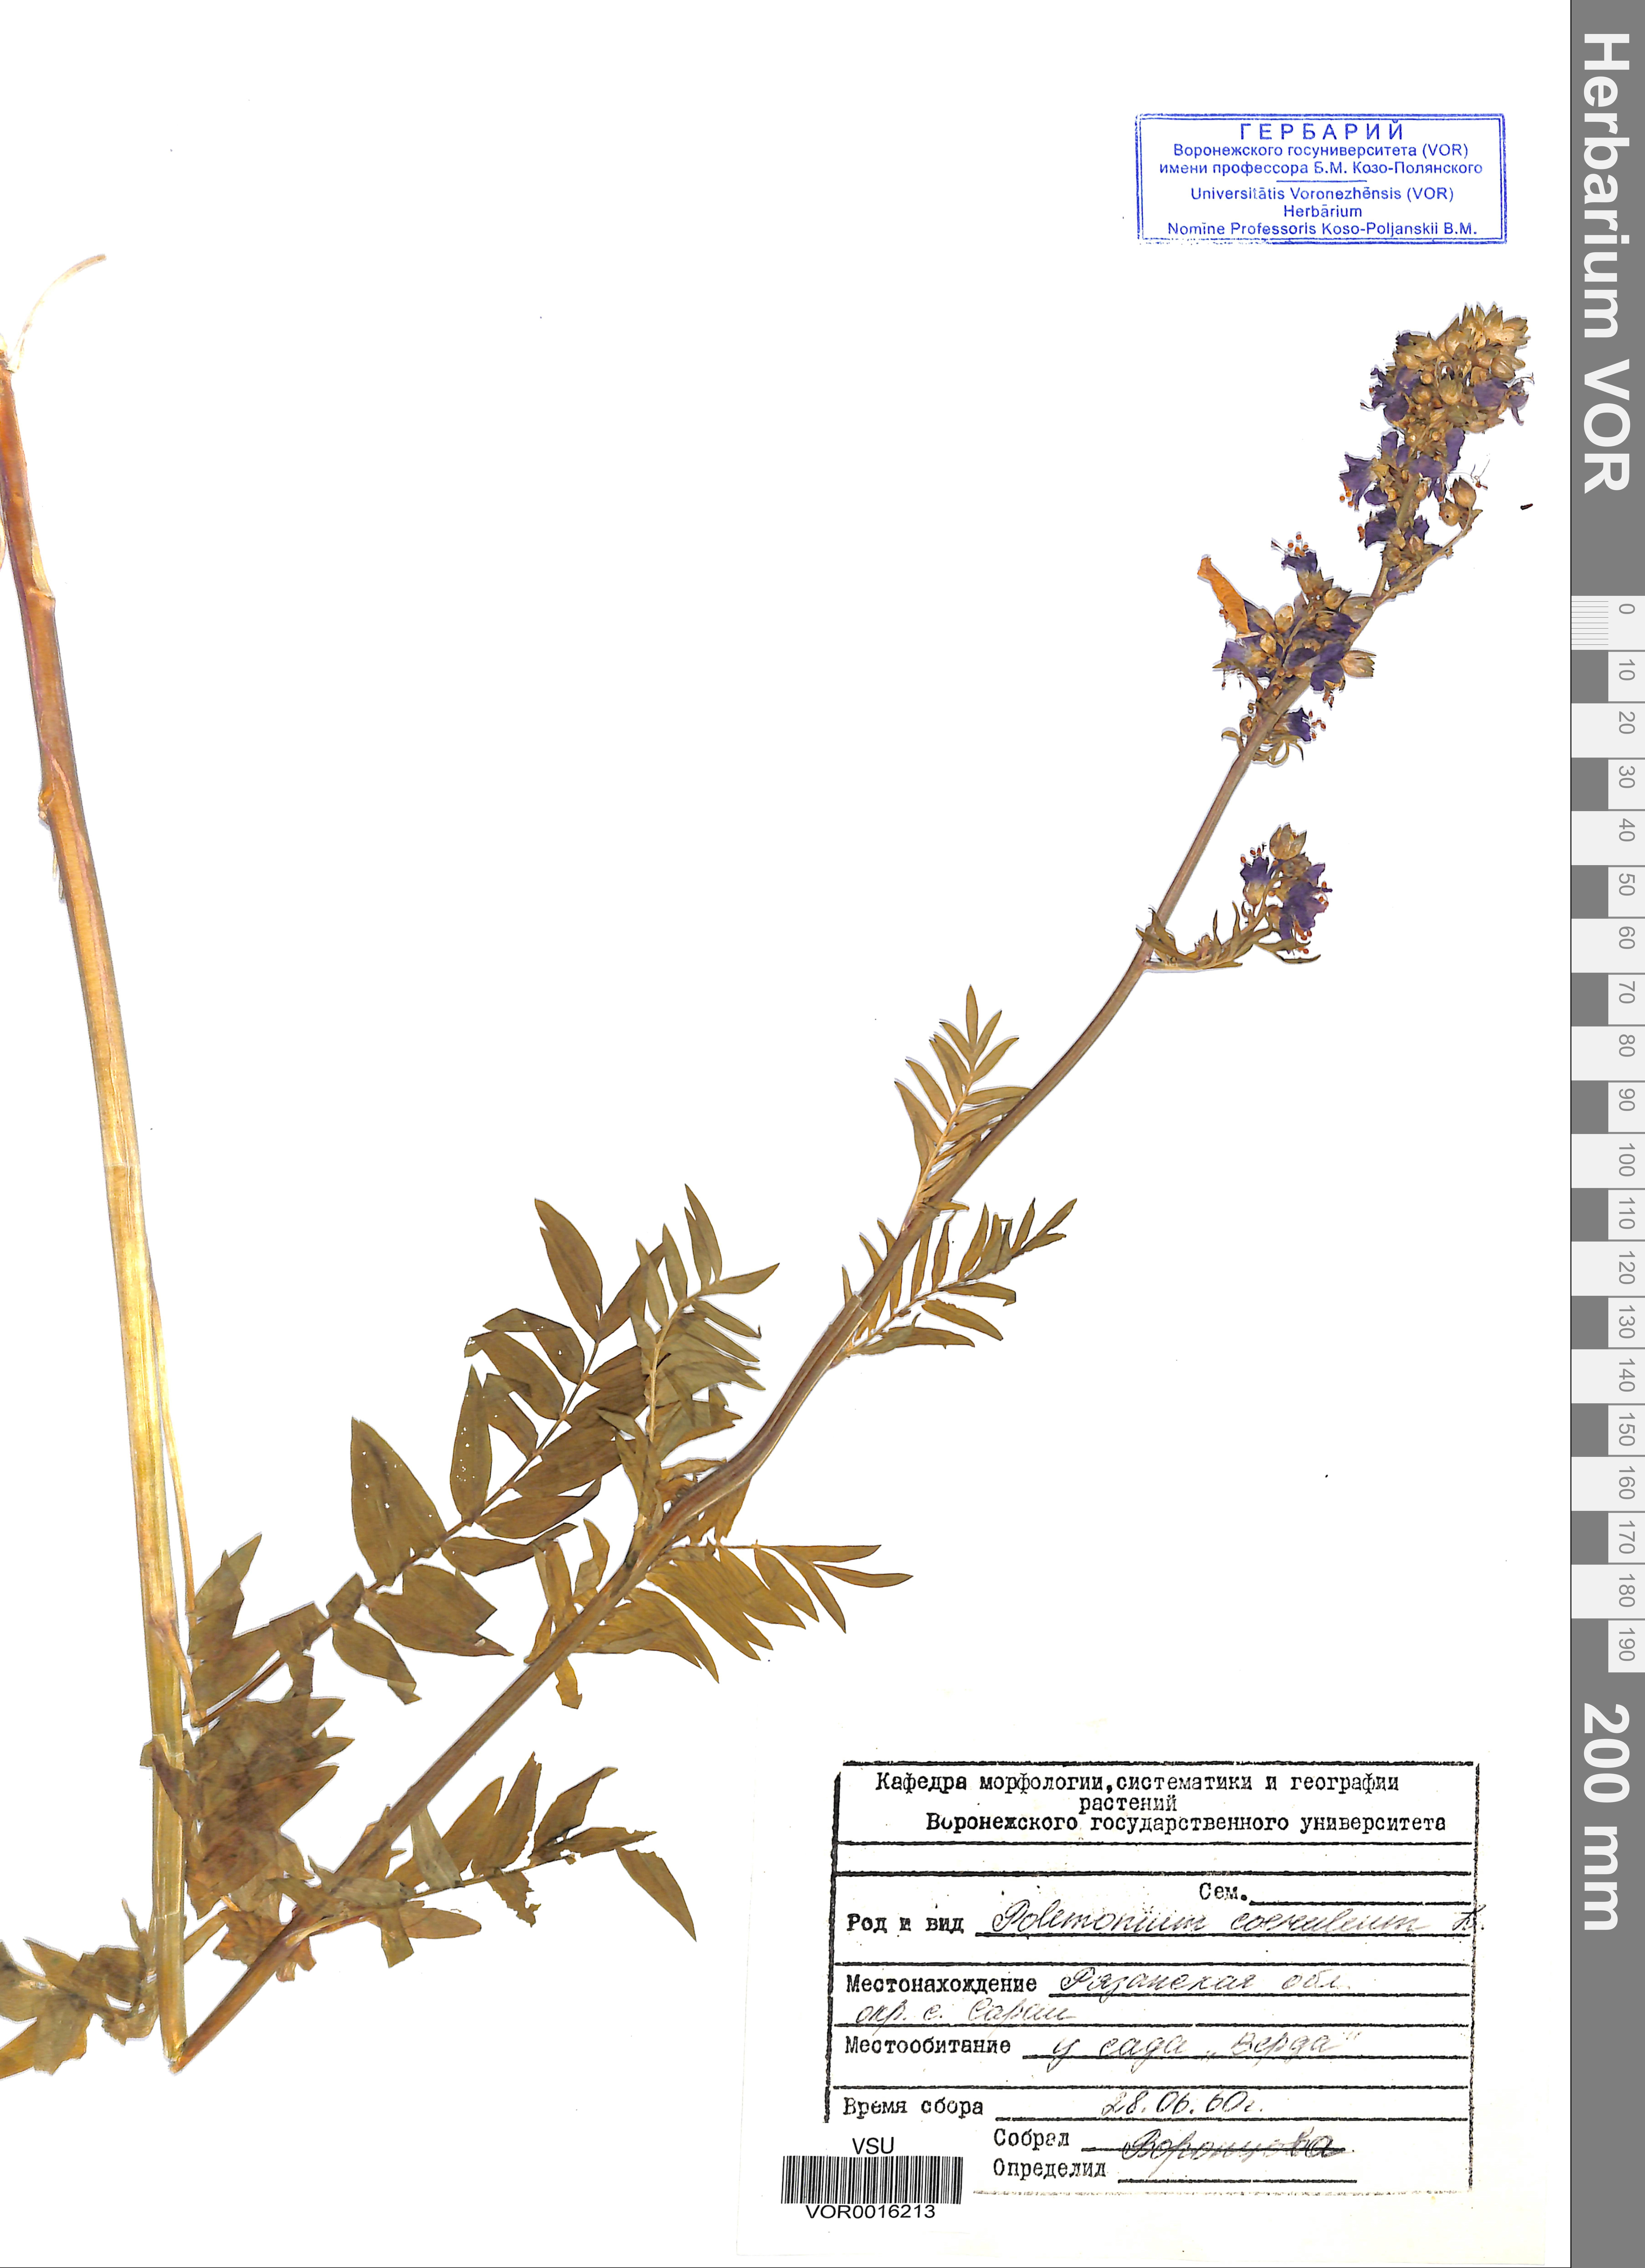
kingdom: Plantae
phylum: Tracheophyta
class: Magnoliopsida
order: Ericales
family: Polemoniaceae
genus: Polemonium
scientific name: Polemonium caeruleum
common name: Jacob's-ladder
